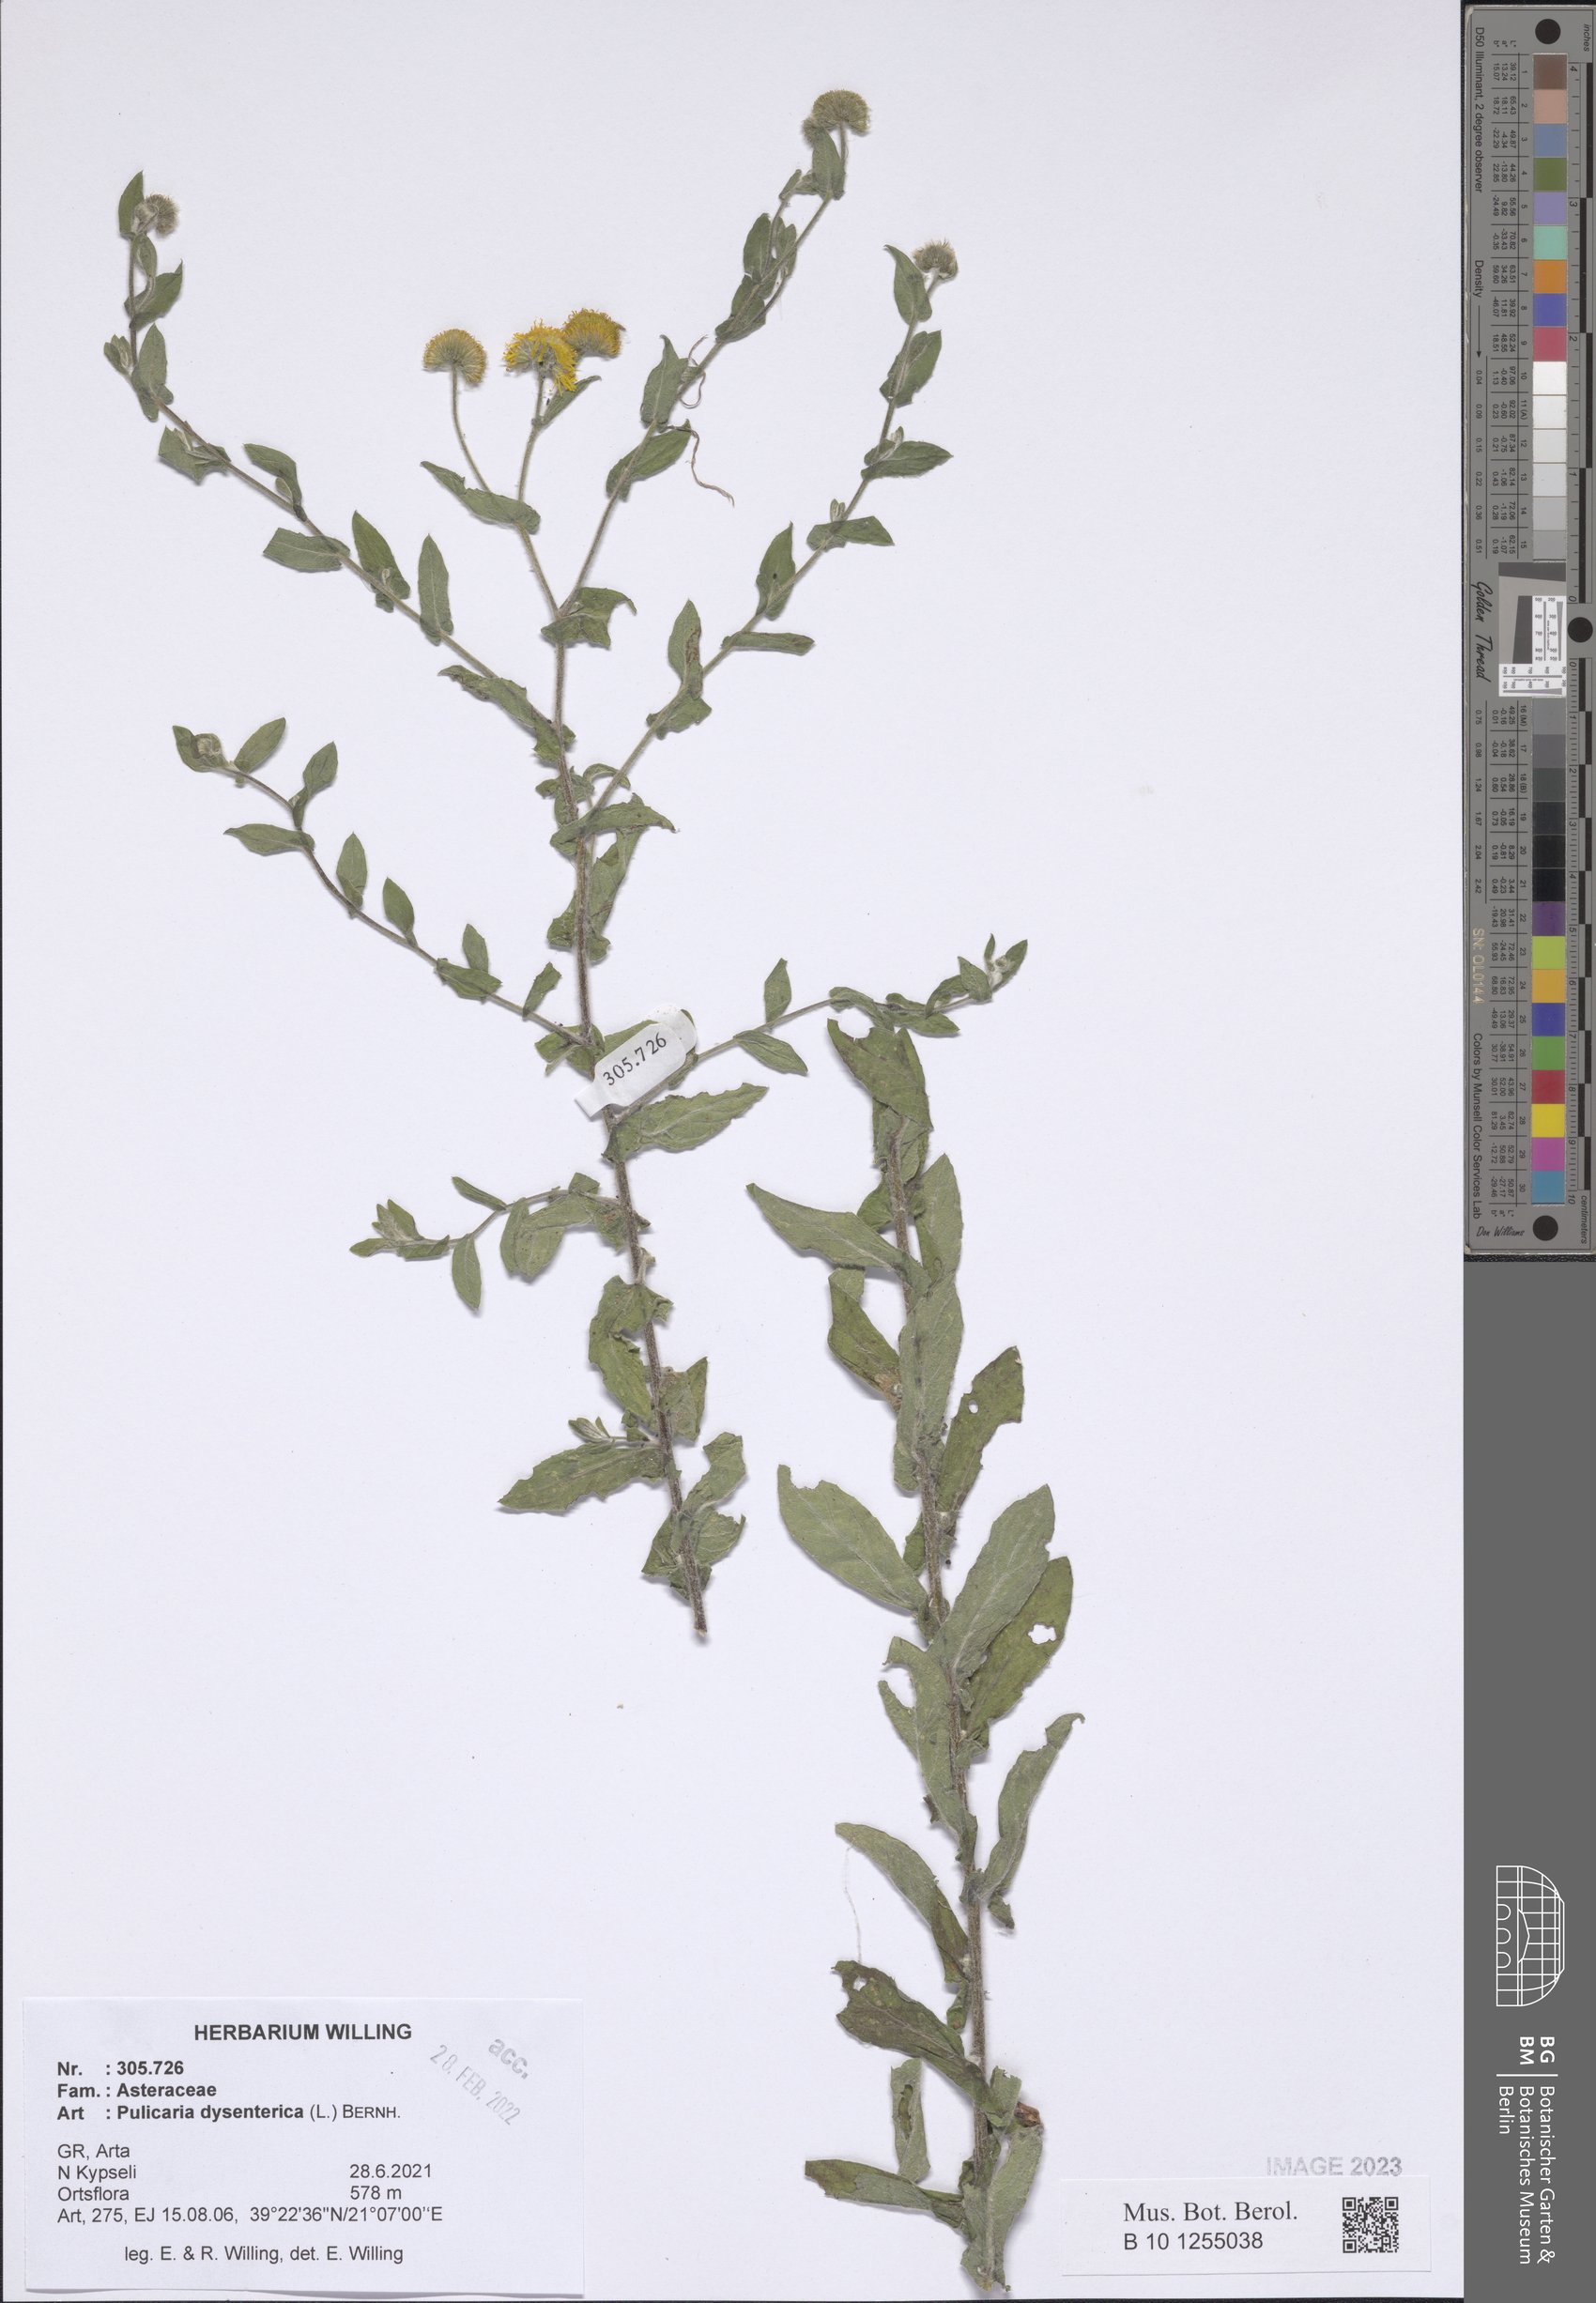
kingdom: Plantae
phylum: Tracheophyta
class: Magnoliopsida
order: Asterales
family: Asteraceae
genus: Pulicaria
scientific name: Pulicaria dysenterica
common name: Common fleabane
